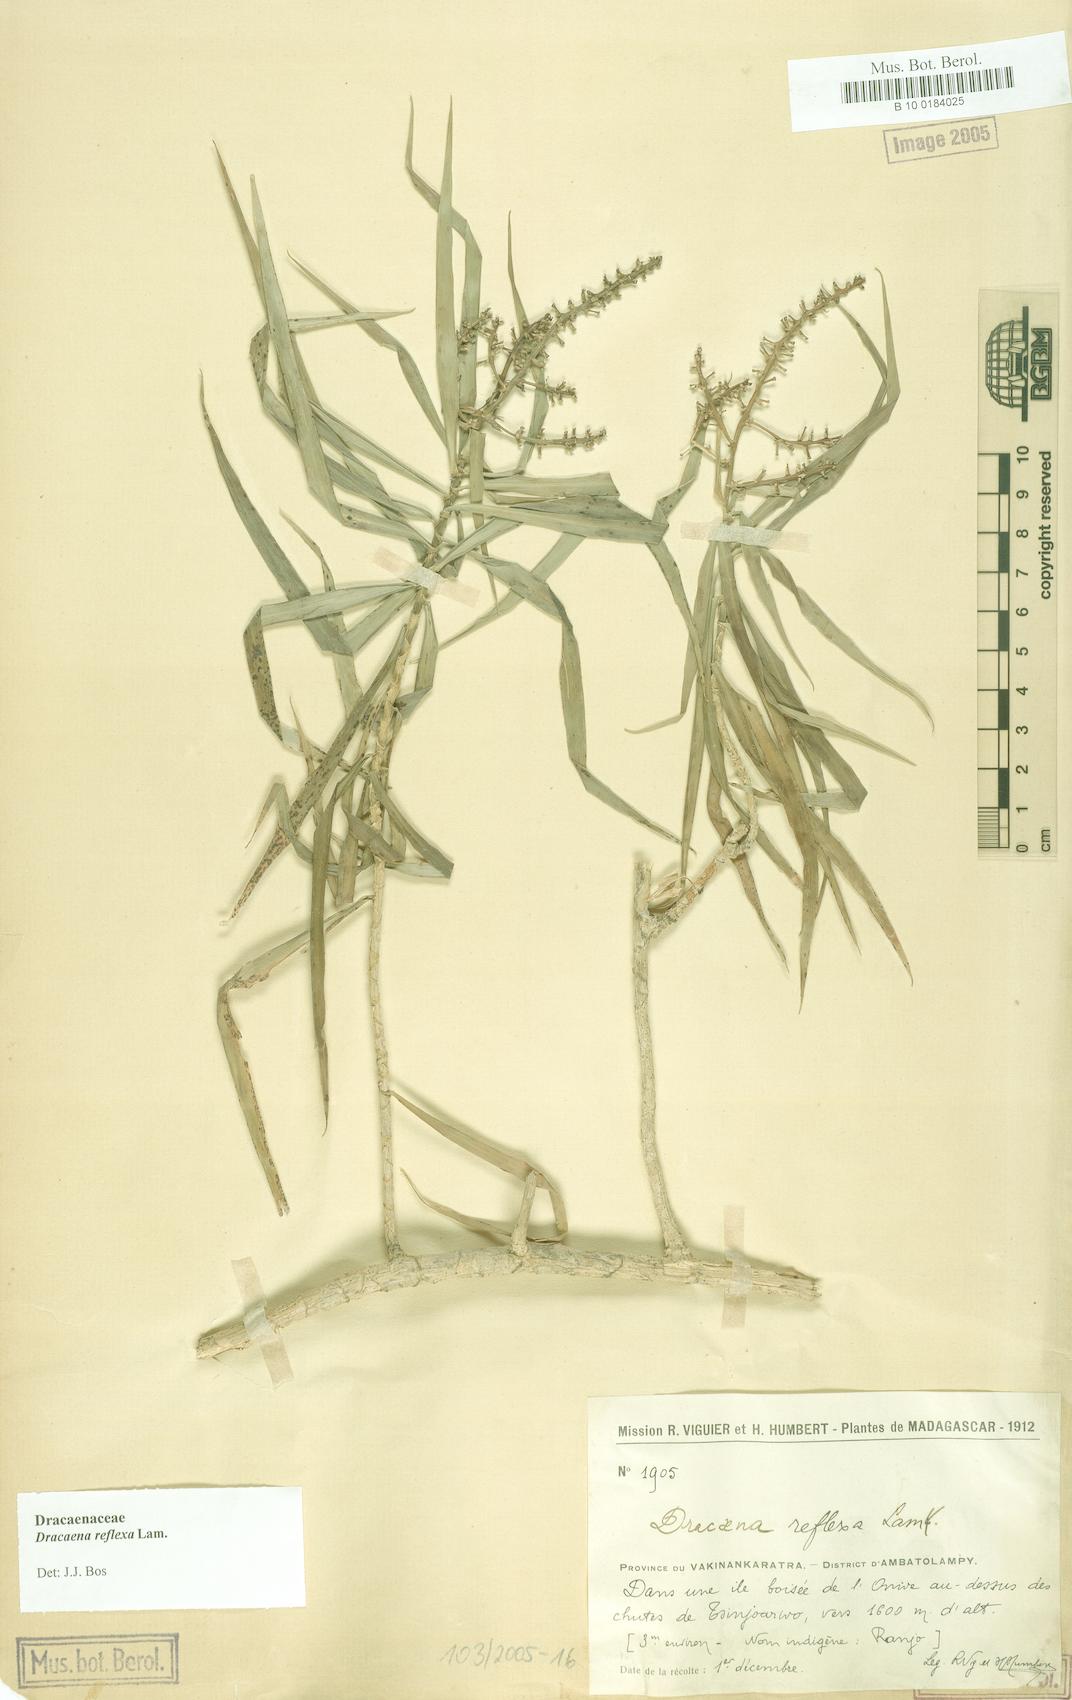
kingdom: Plantae
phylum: Tracheophyta
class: Liliopsida
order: Asparagales
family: Asparagaceae
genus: Dracaena
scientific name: Dracaena reflexa
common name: Song-of-india
